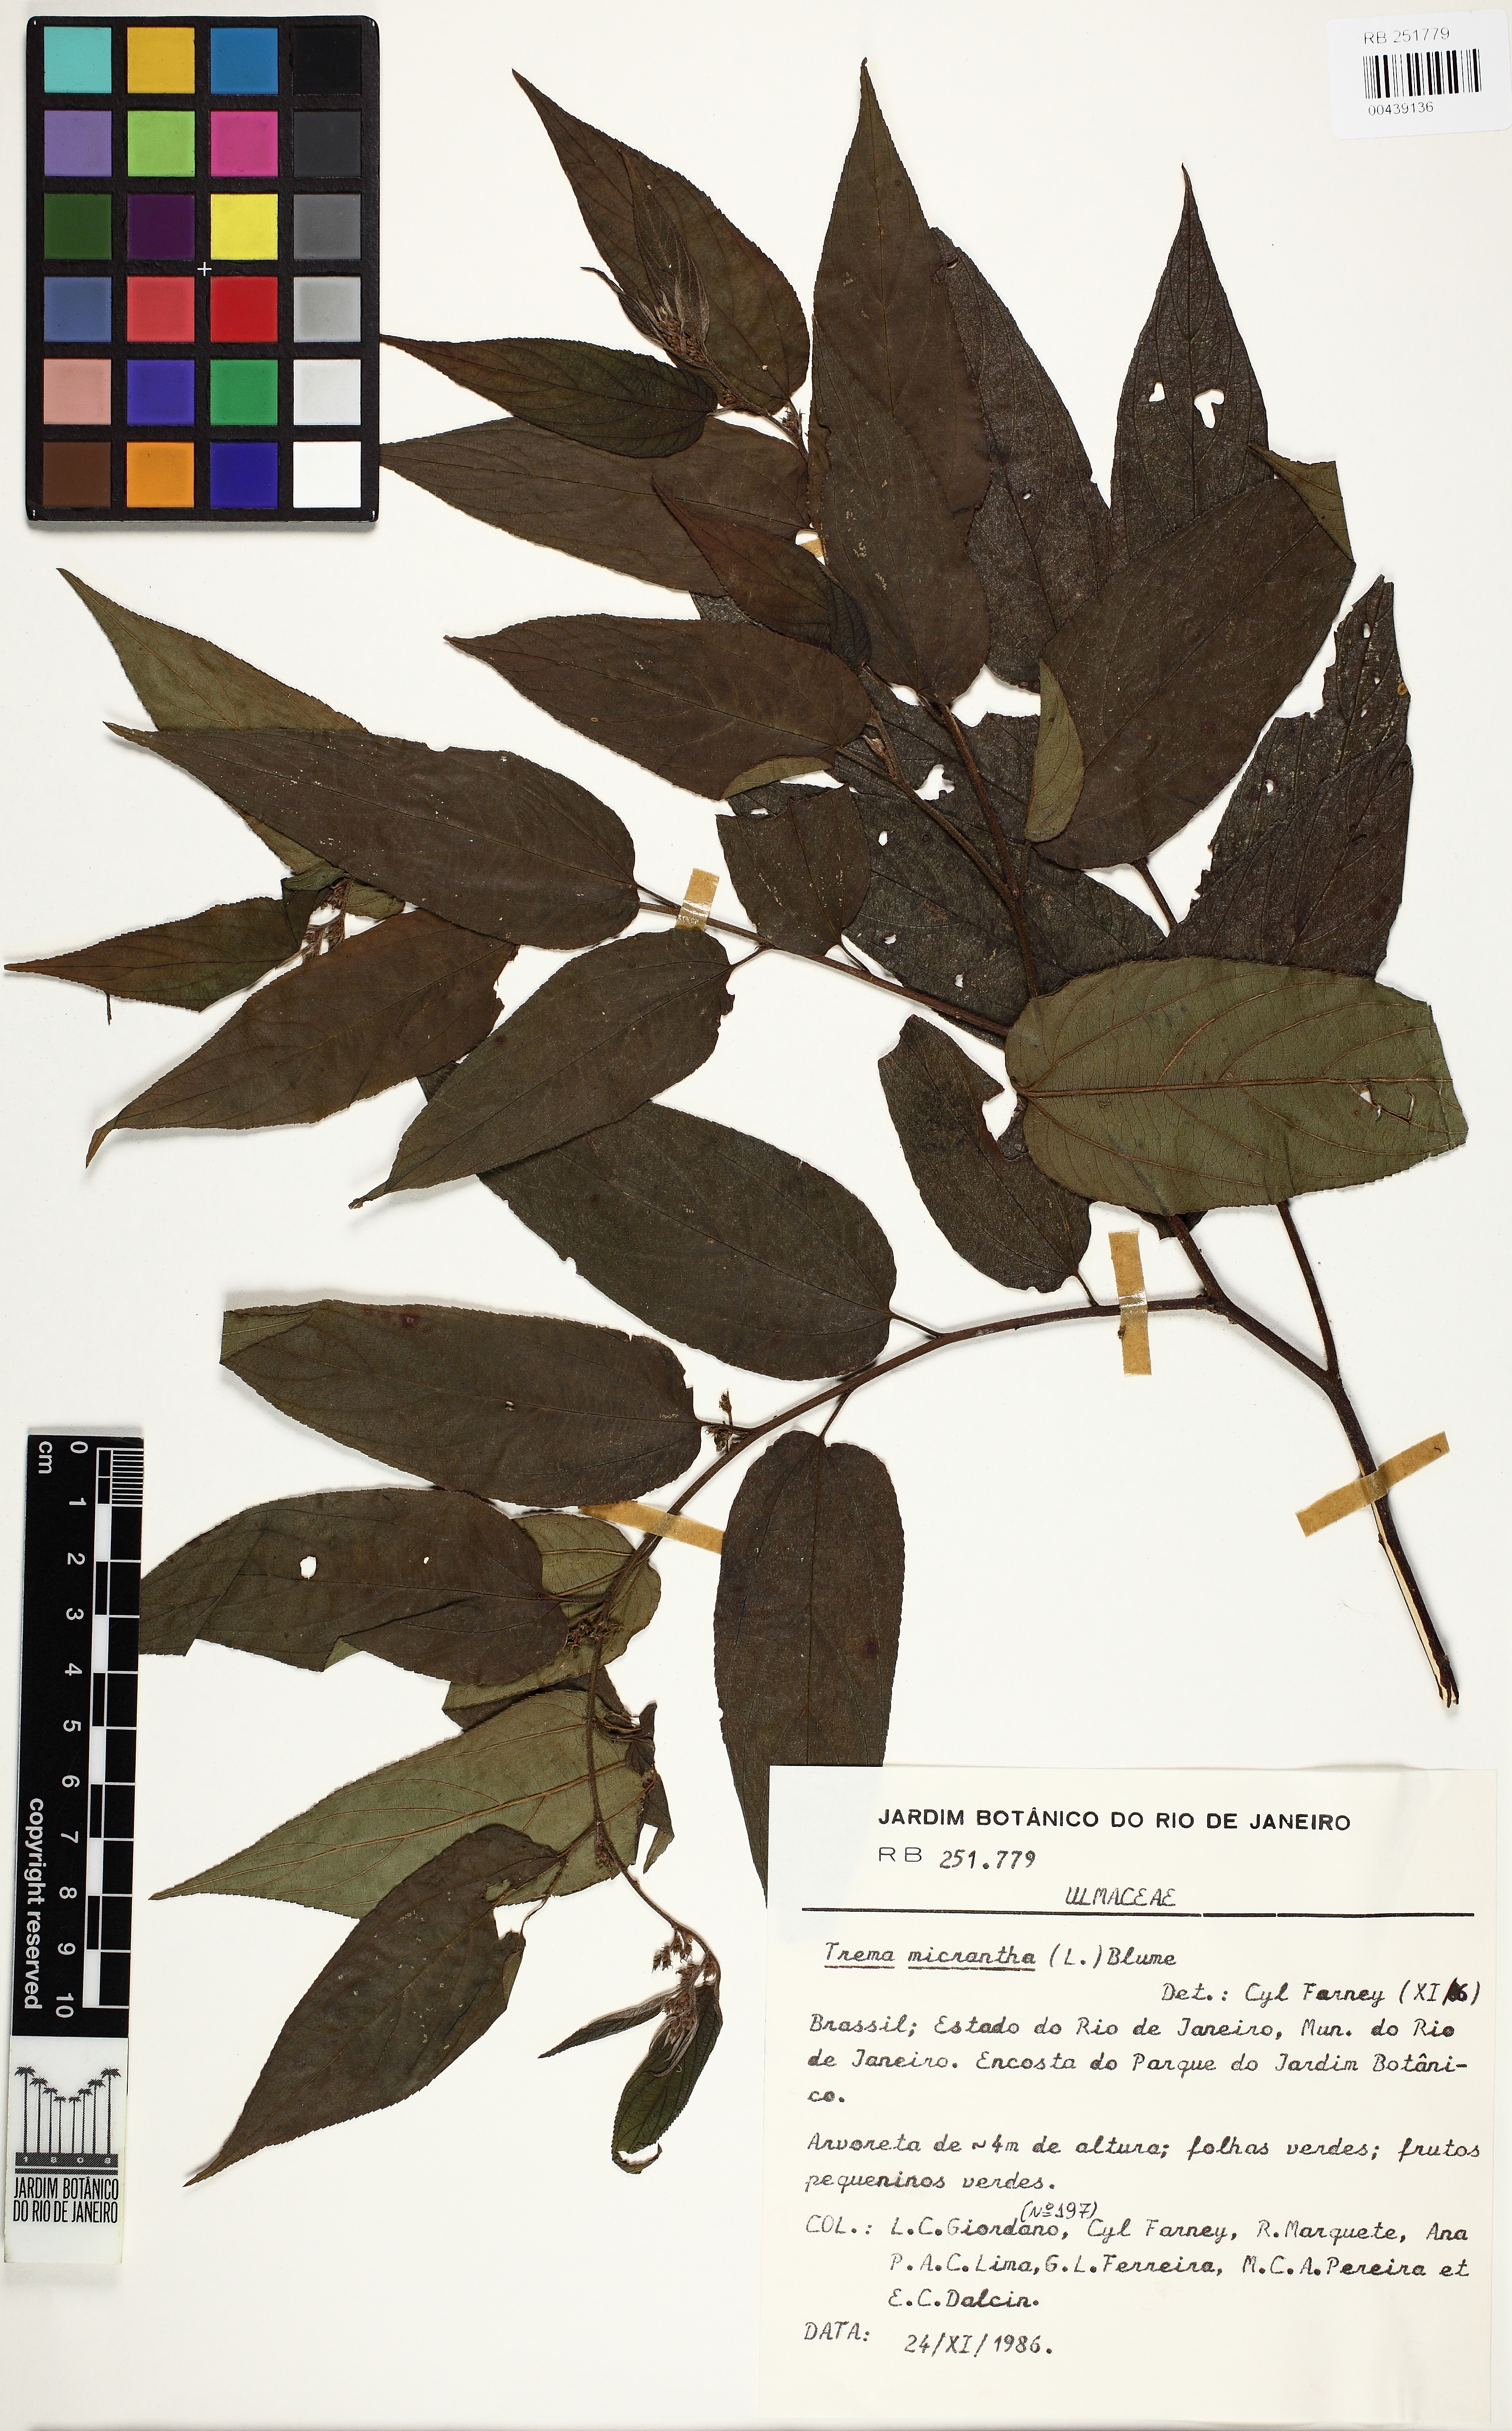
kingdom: Plantae
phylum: Tracheophyta
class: Magnoliopsida
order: Rosales
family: Cannabaceae
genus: Trema
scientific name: Trema micranthum
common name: Jamaican nettletree
